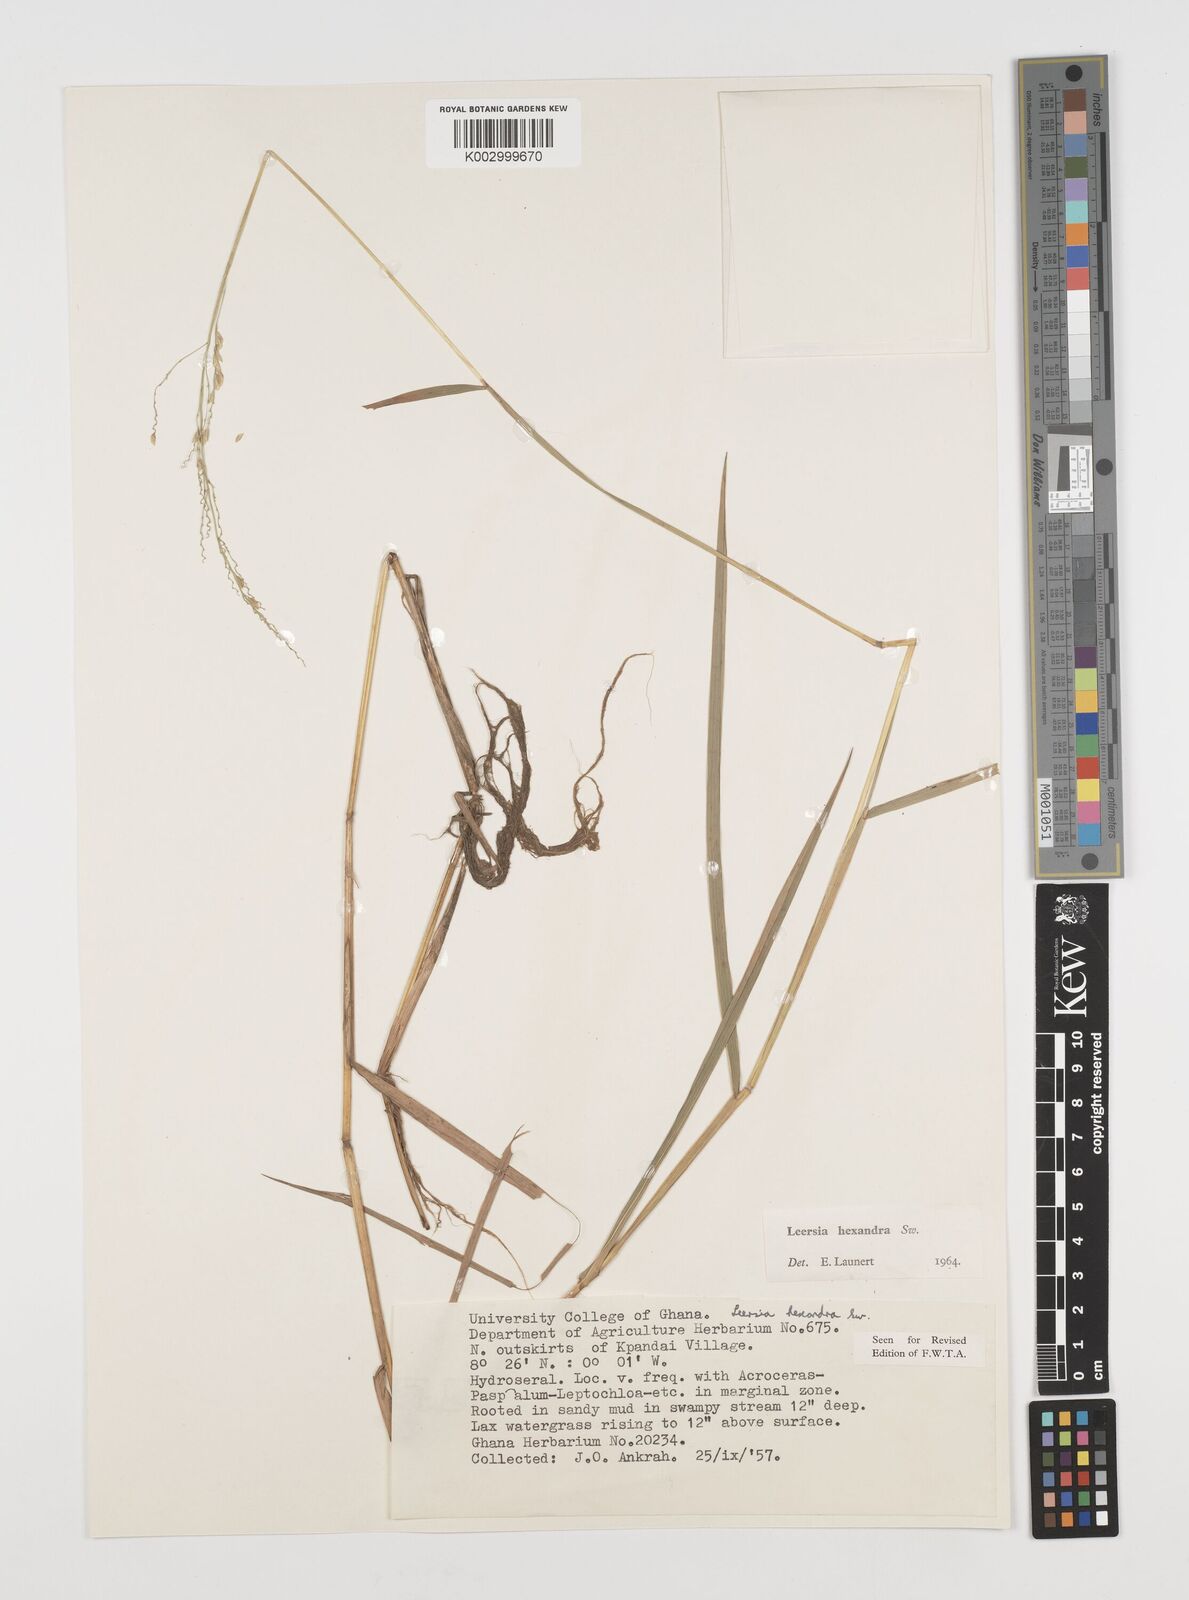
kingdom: Plantae
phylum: Tracheophyta
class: Liliopsida
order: Poales
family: Poaceae
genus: Leersia
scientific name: Leersia hexandra
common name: Southern cut grass
